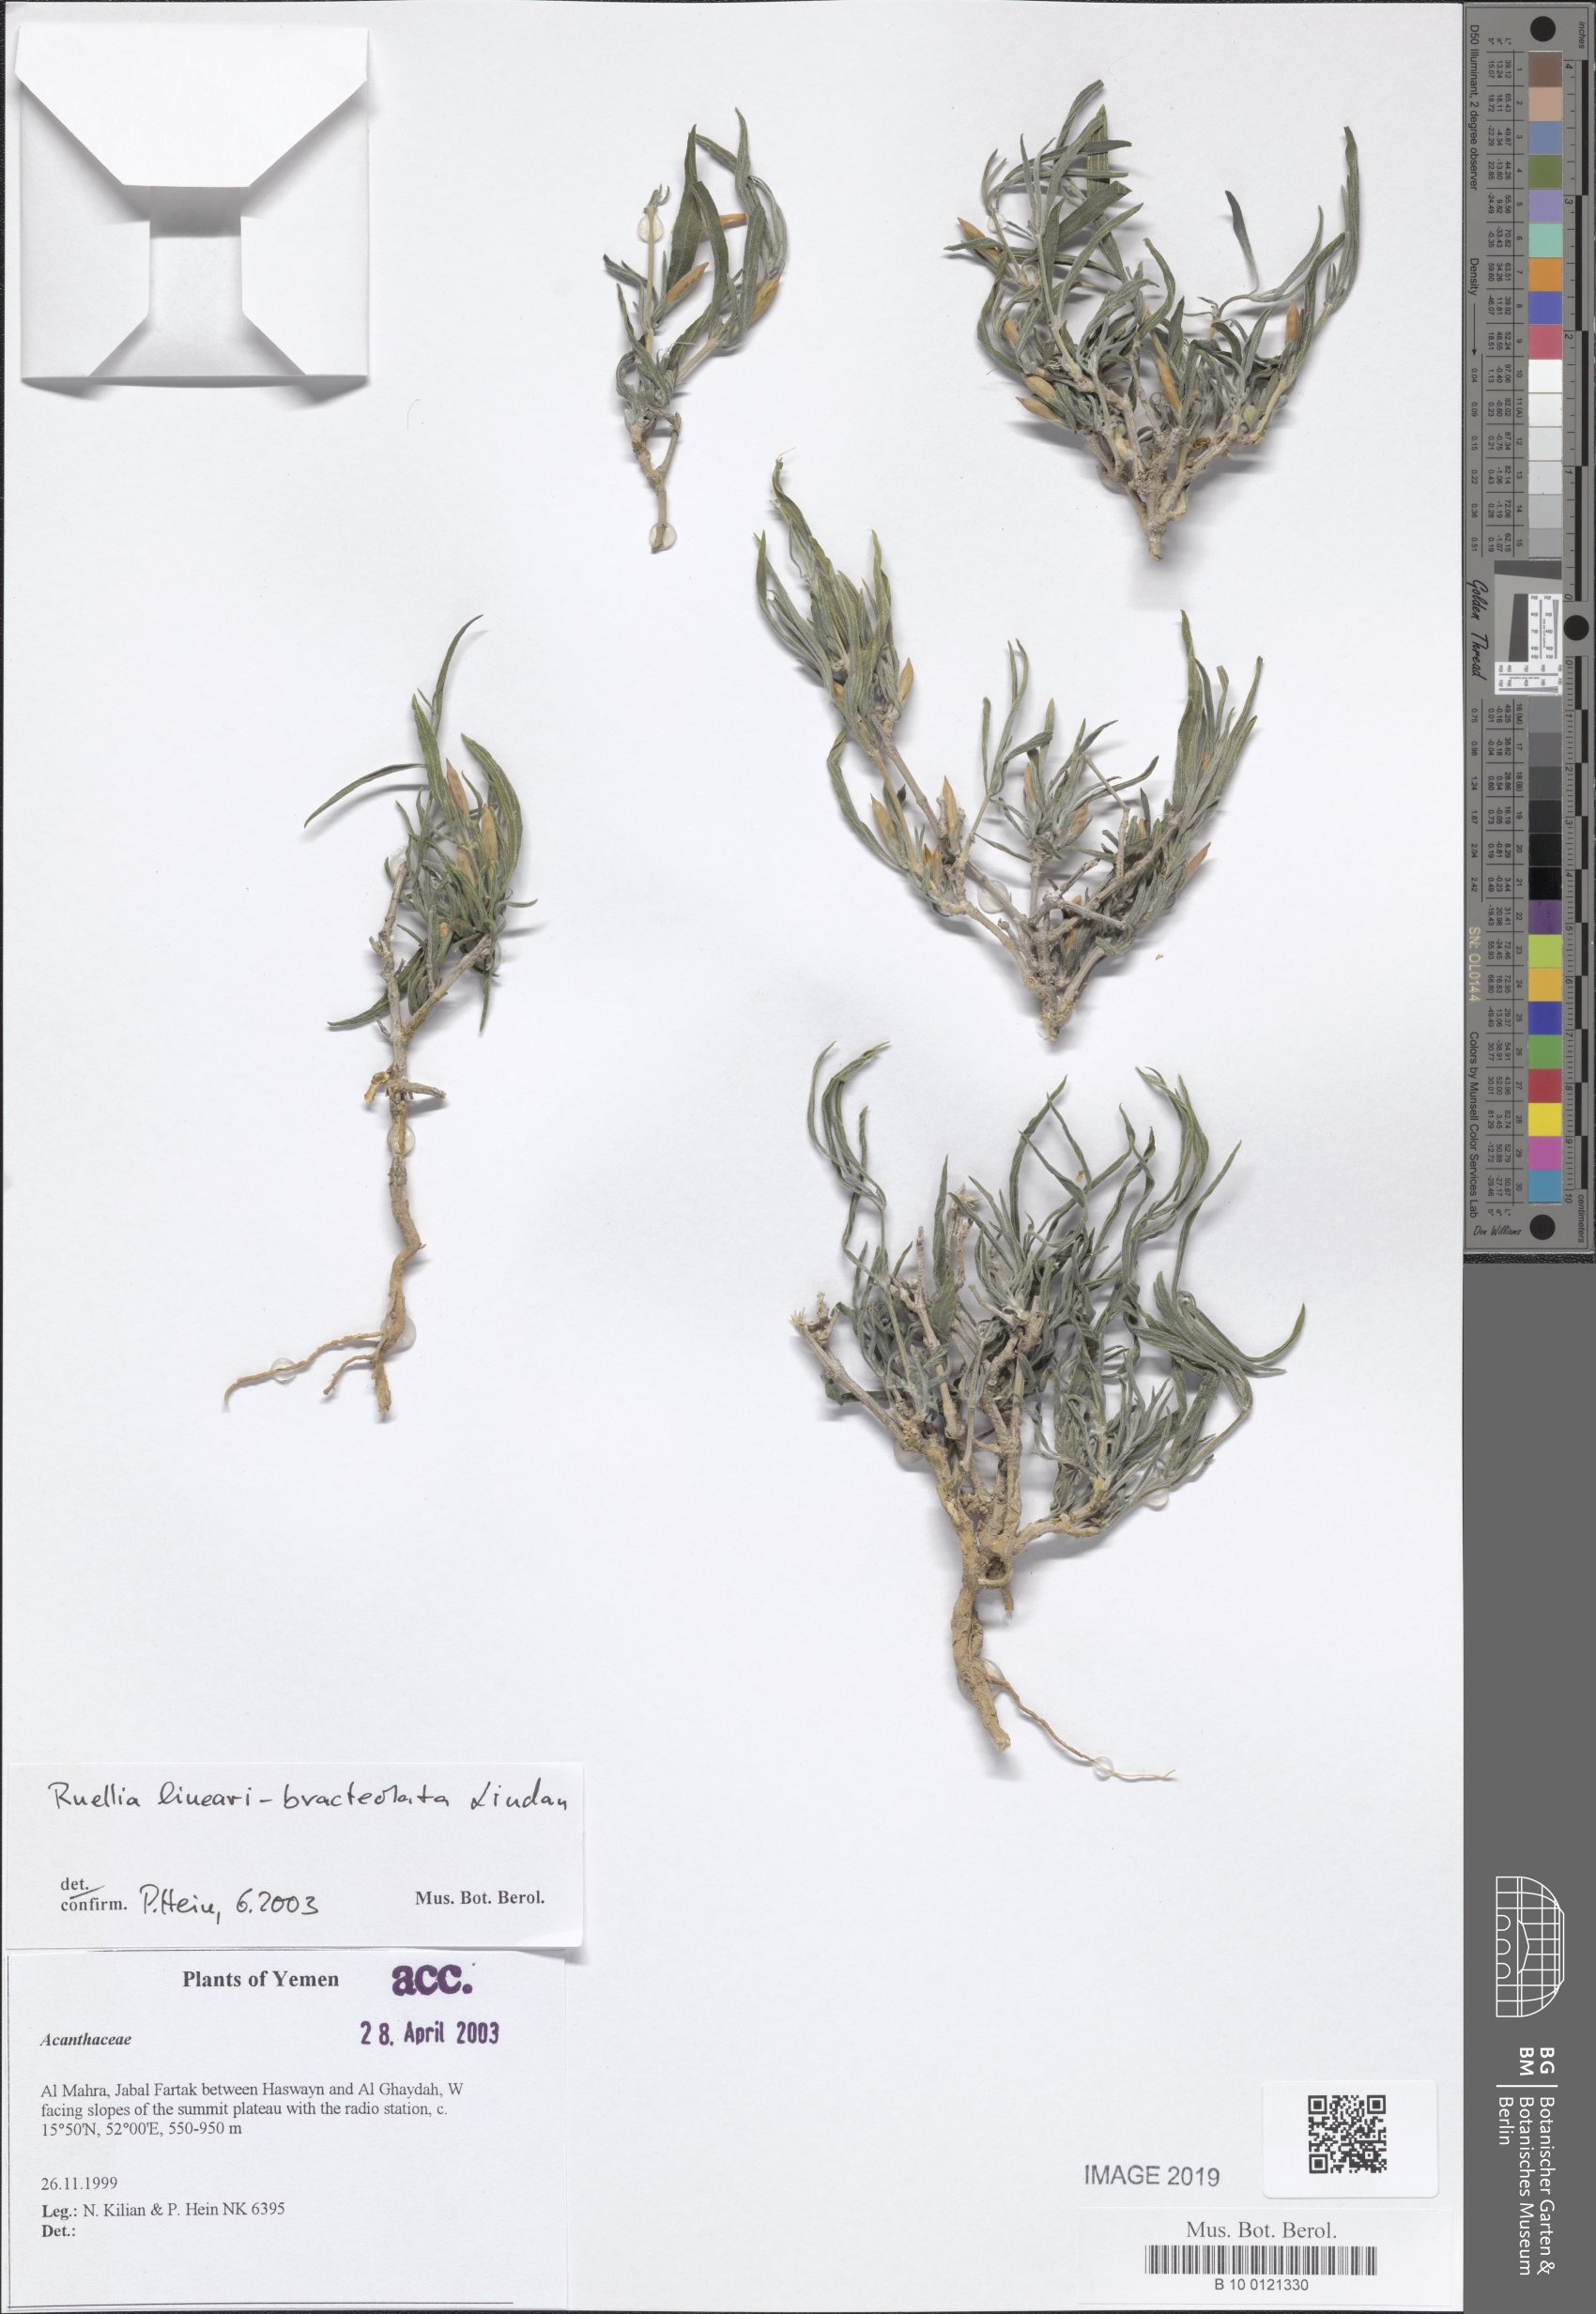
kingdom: Plantae
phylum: Tracheophyta
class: Magnoliopsida
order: Lamiales
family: Acanthaceae
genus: Ruellia
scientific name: Ruellia linearibracteolata
